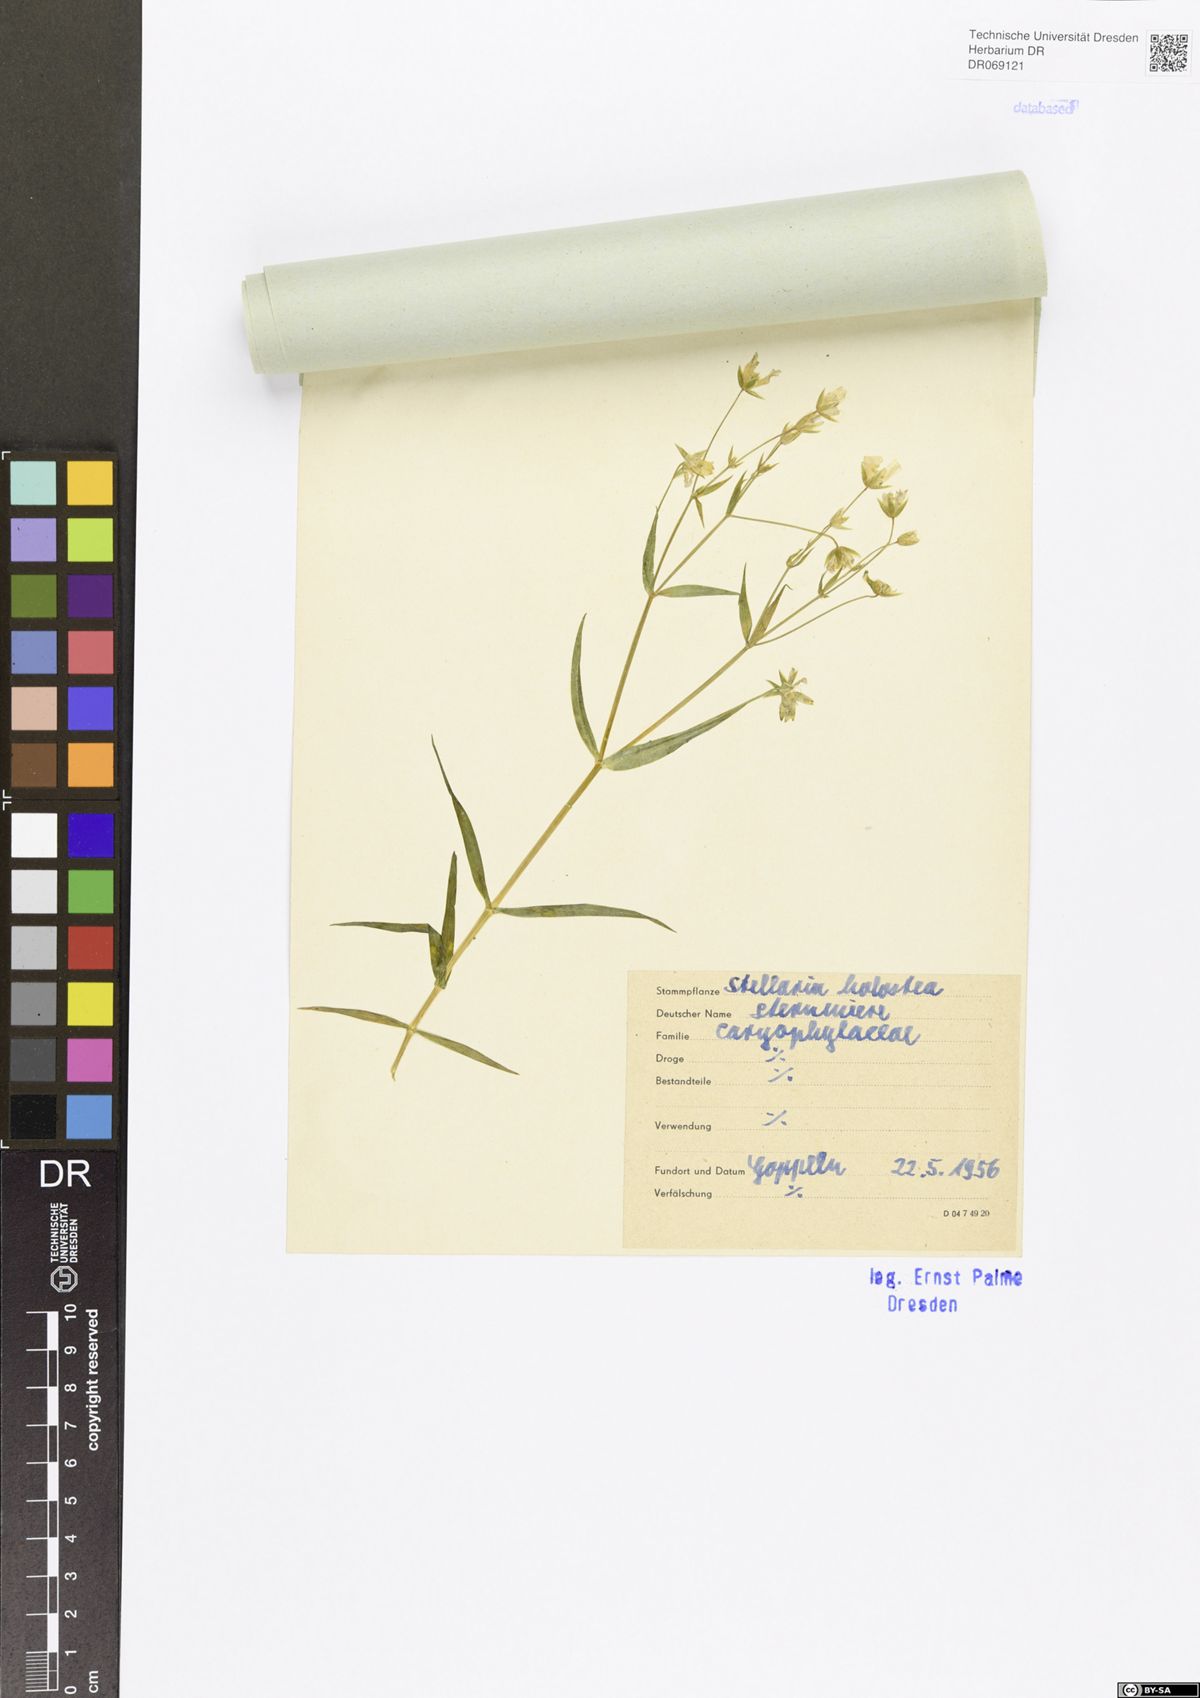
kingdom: Plantae
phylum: Tracheophyta
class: Magnoliopsida
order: Caryophyllales
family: Caryophyllaceae
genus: Rabelera
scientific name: Rabelera holostea
